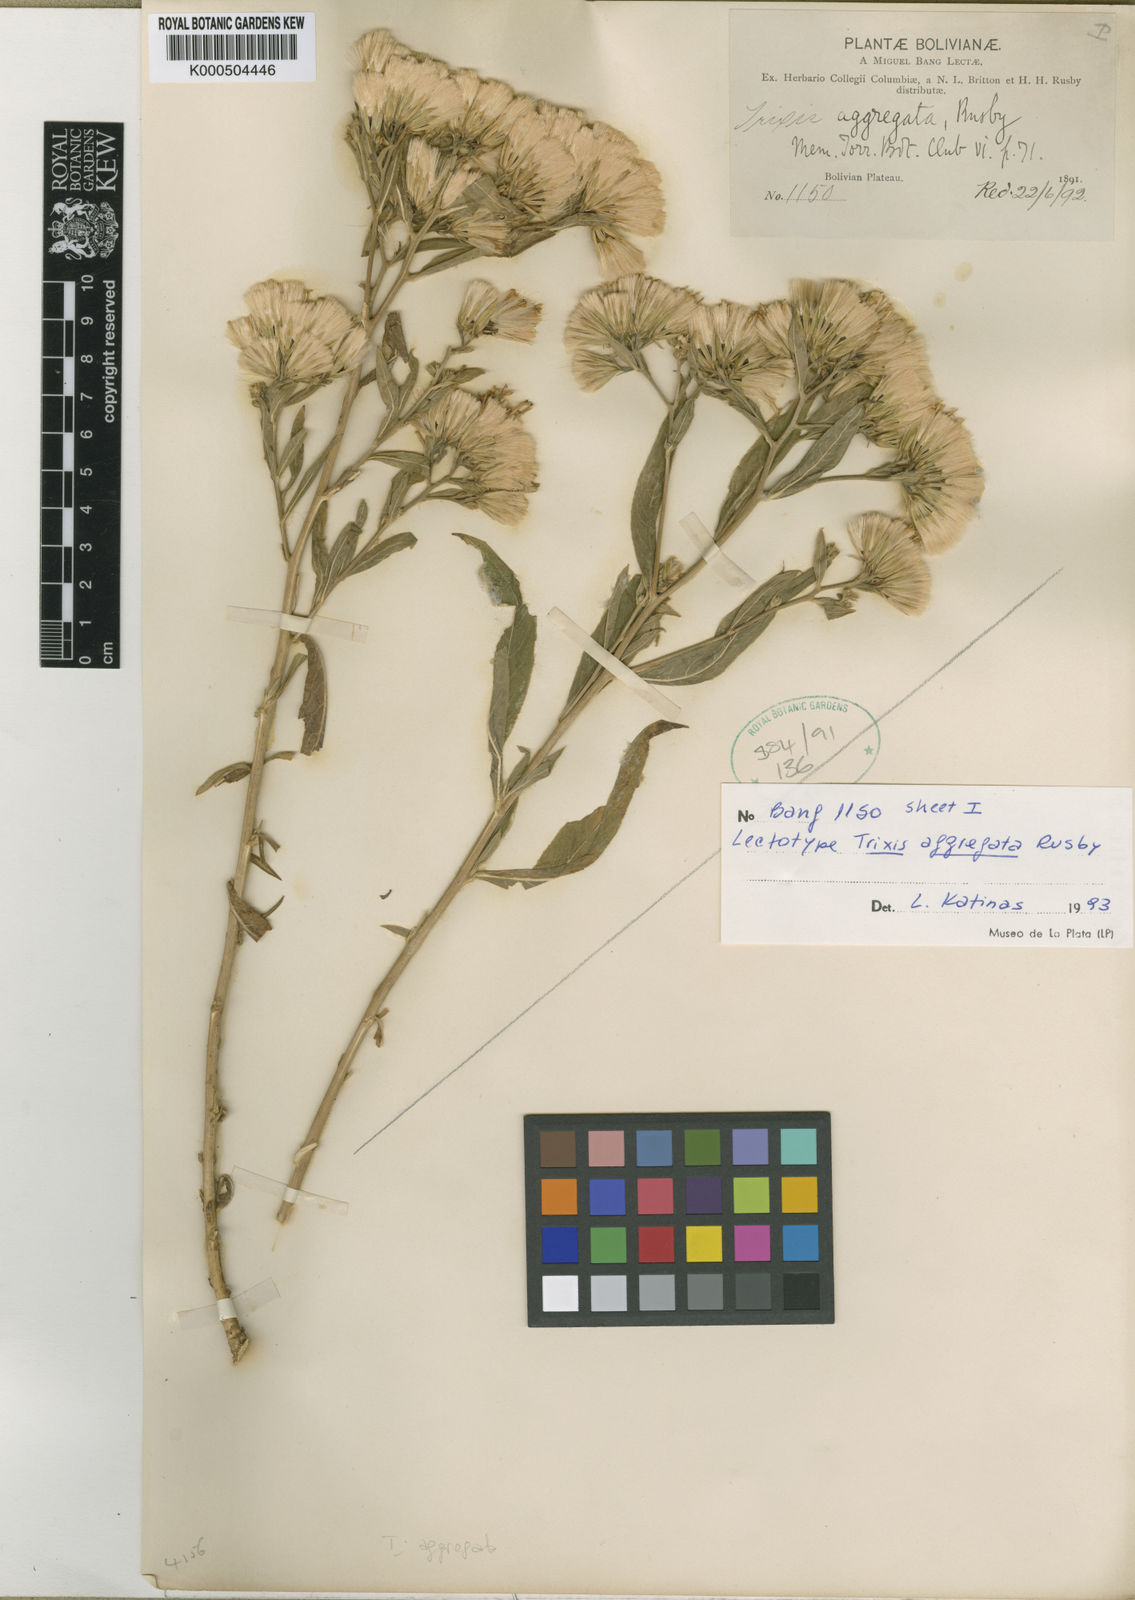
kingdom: Plantae
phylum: Tracheophyta
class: Magnoliopsida
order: Asterales
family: Asteraceae
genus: Trixis
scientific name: Trixis aggregata
